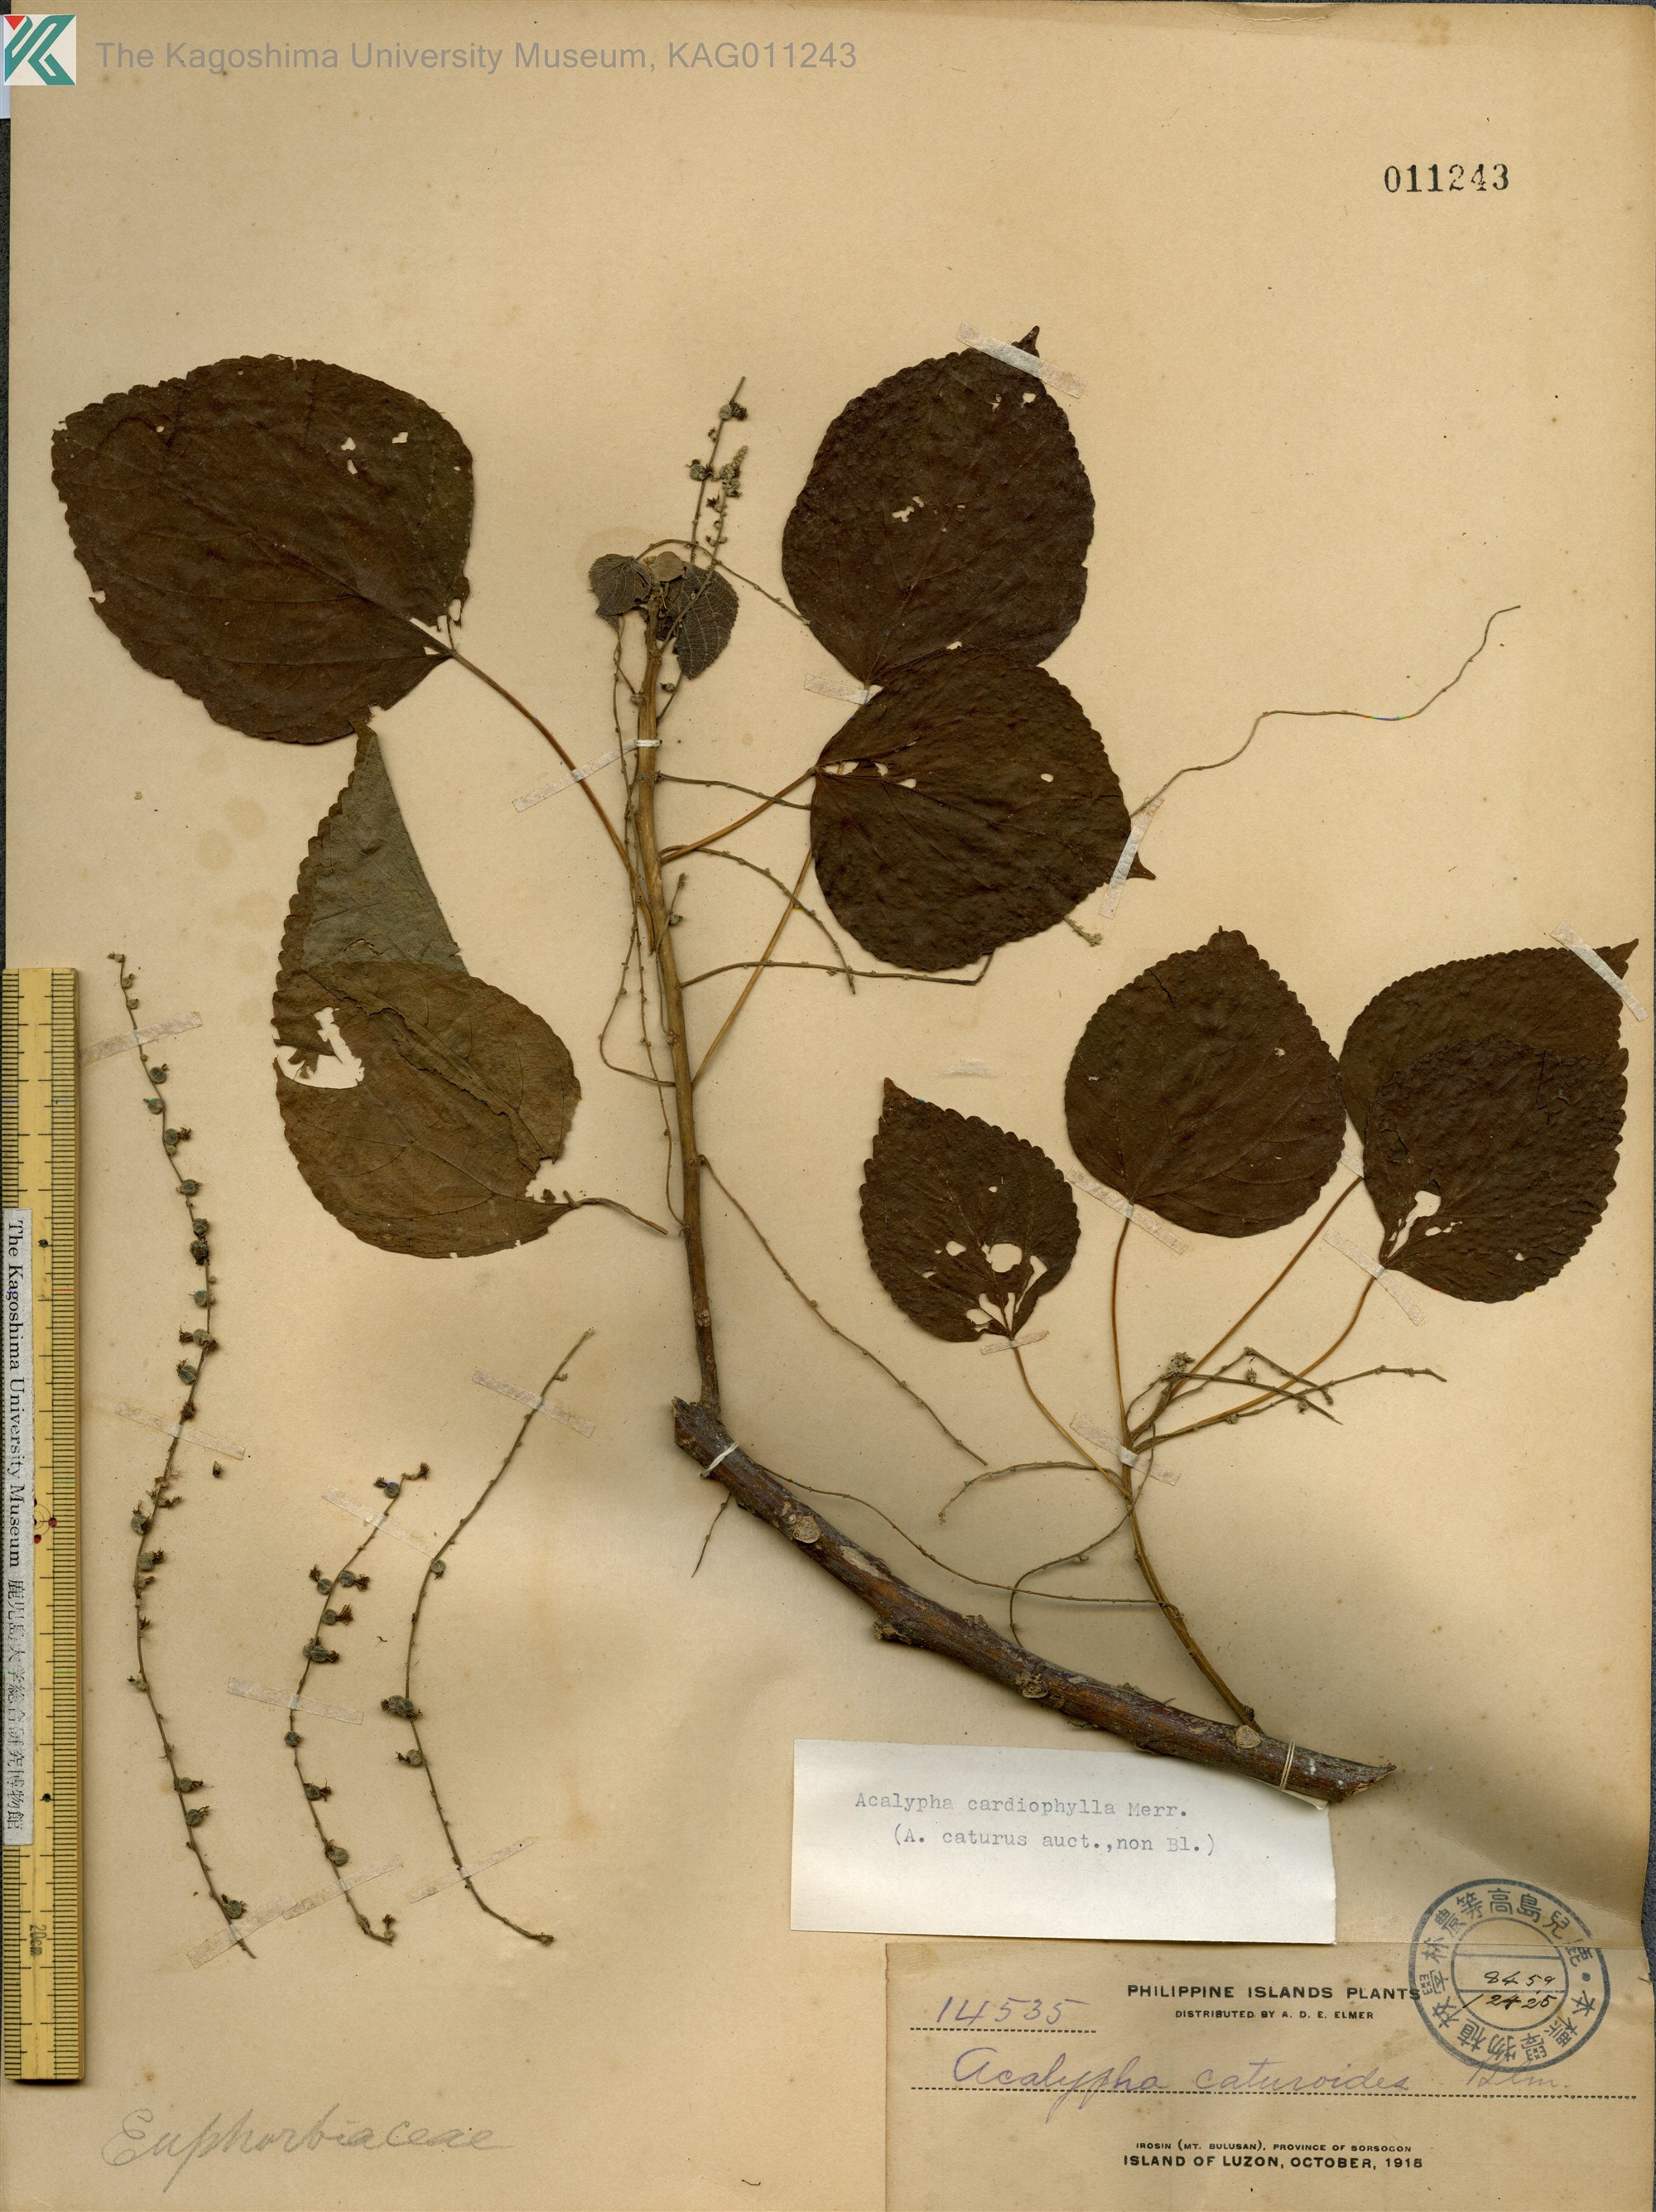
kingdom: Plantae
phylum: Tracheophyta
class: Magnoliopsida
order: Malpighiales
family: Euphorbiaceae
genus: Acalypha
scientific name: Acalypha cardiophylla
